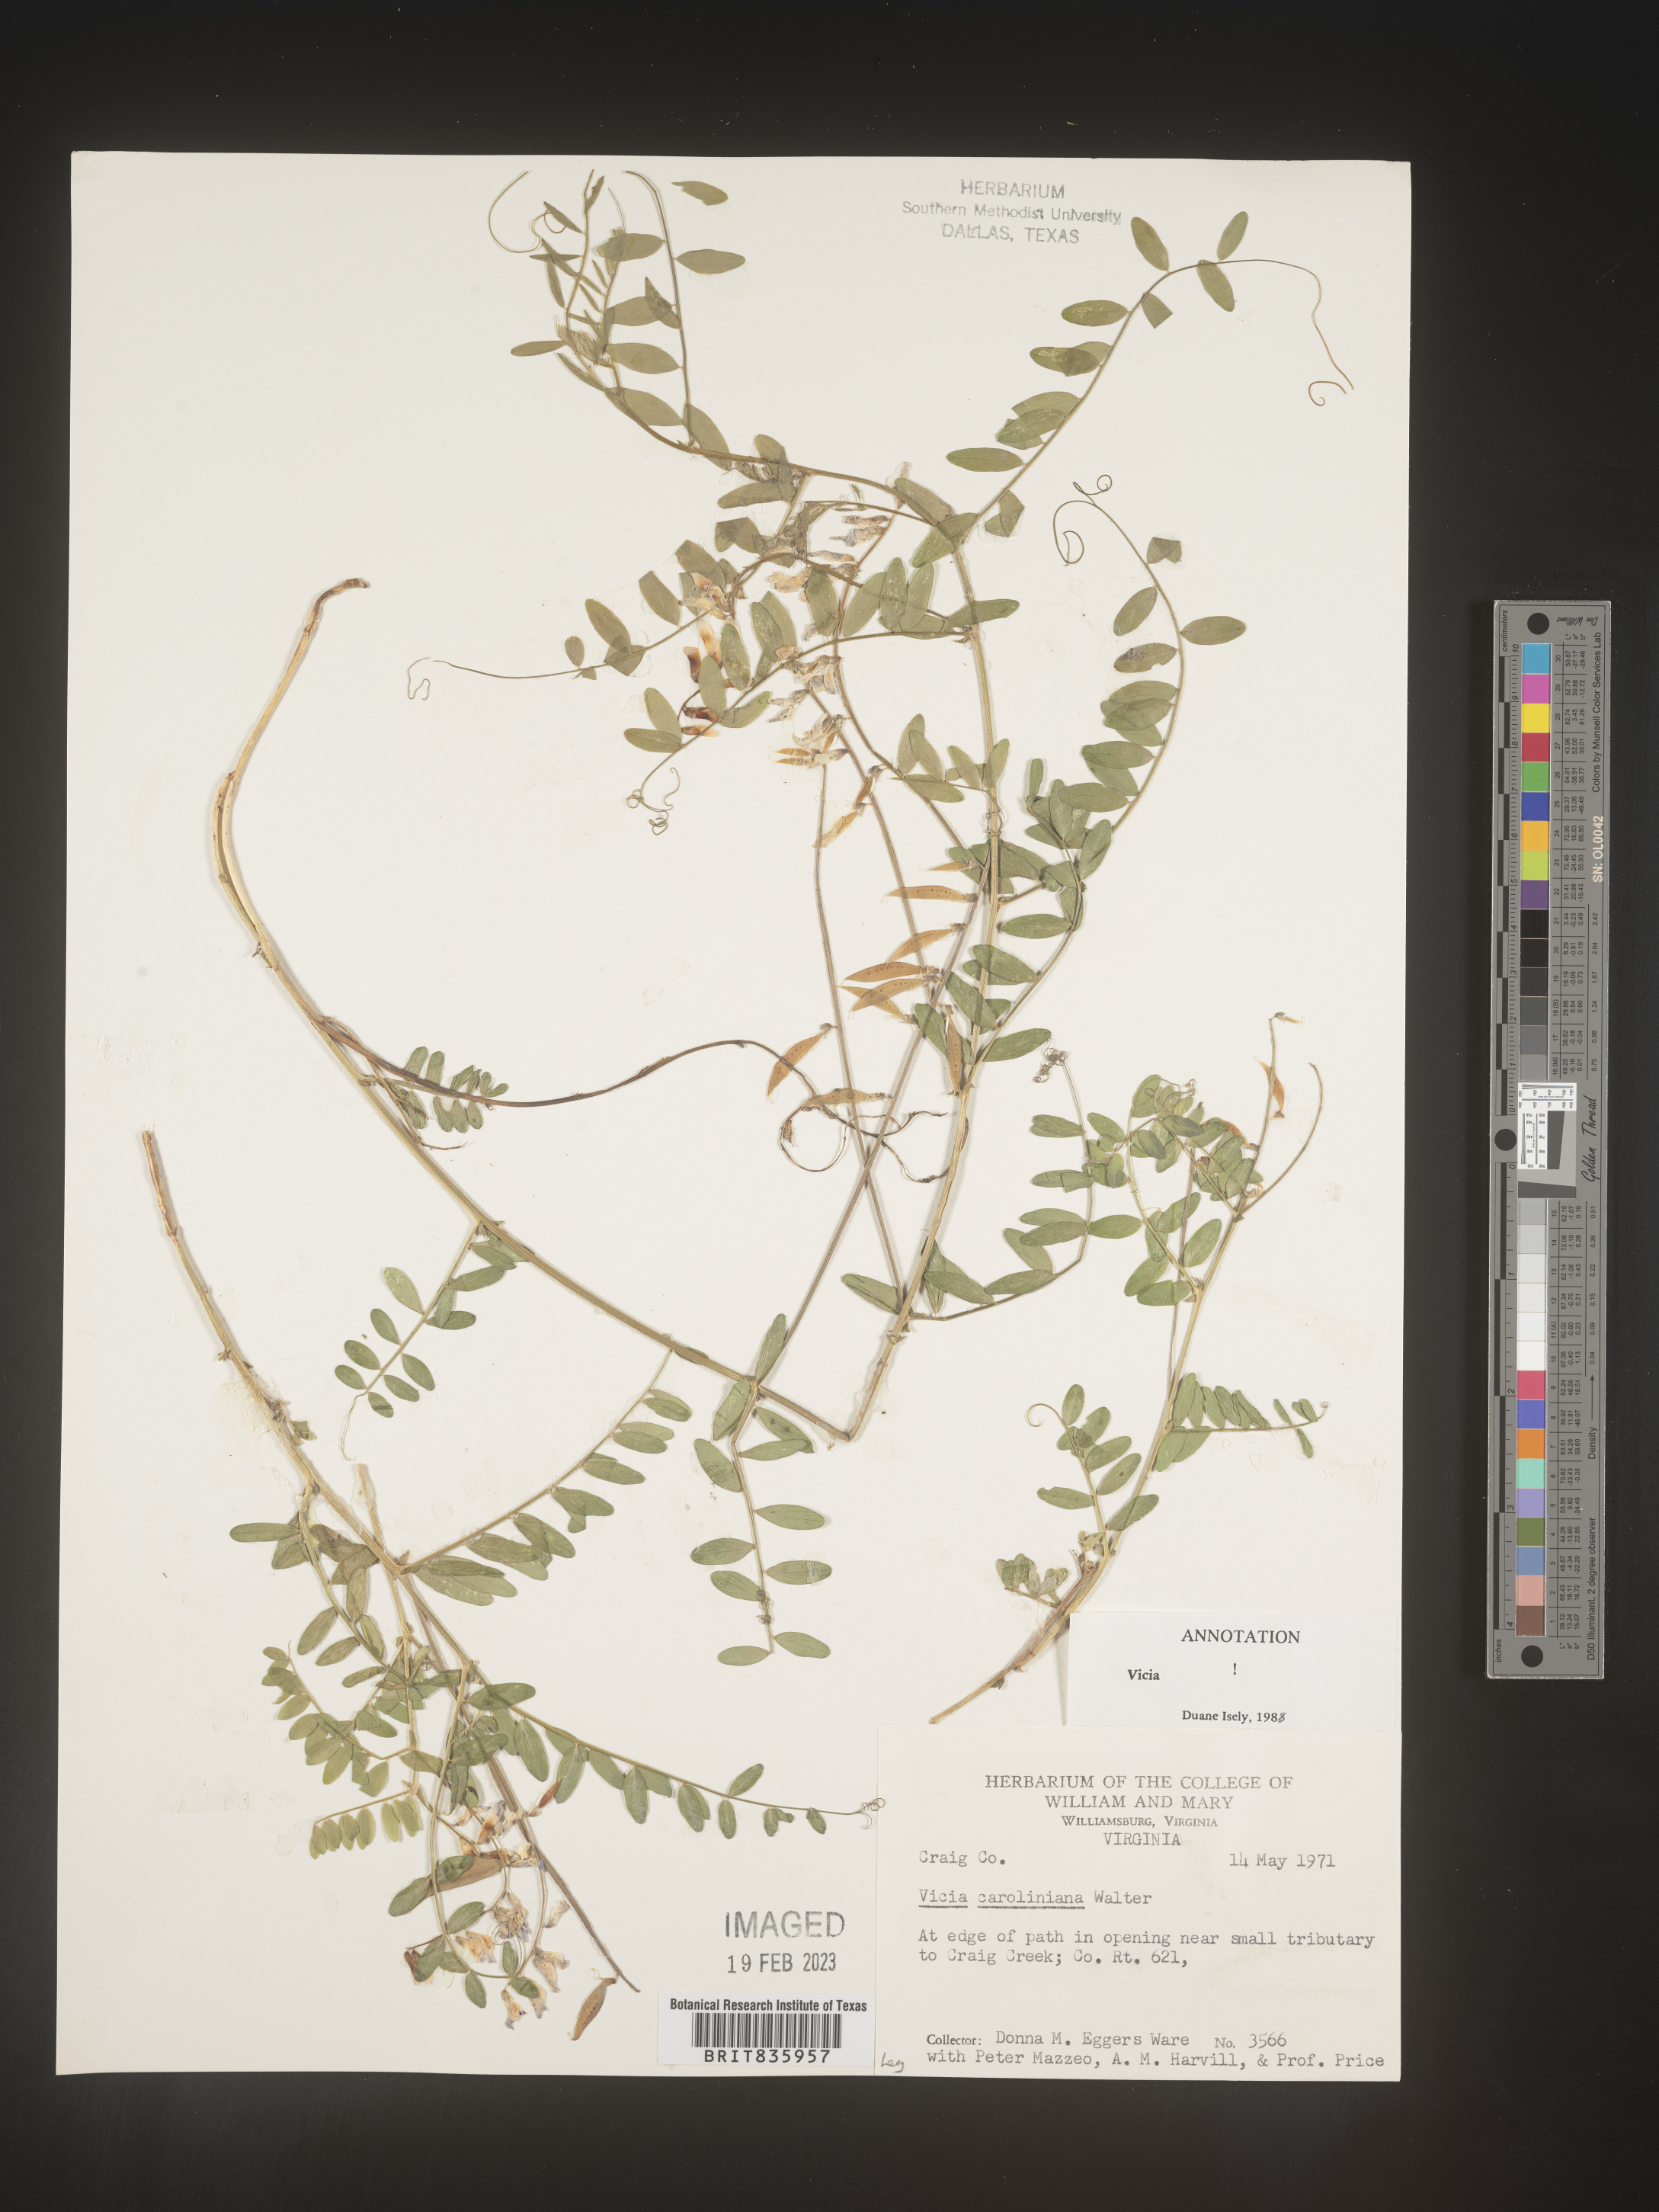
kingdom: Plantae
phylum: Tracheophyta
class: Magnoliopsida
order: Fabales
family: Fabaceae
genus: Vicia
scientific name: Vicia caroliniana
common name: Carolina vetch
